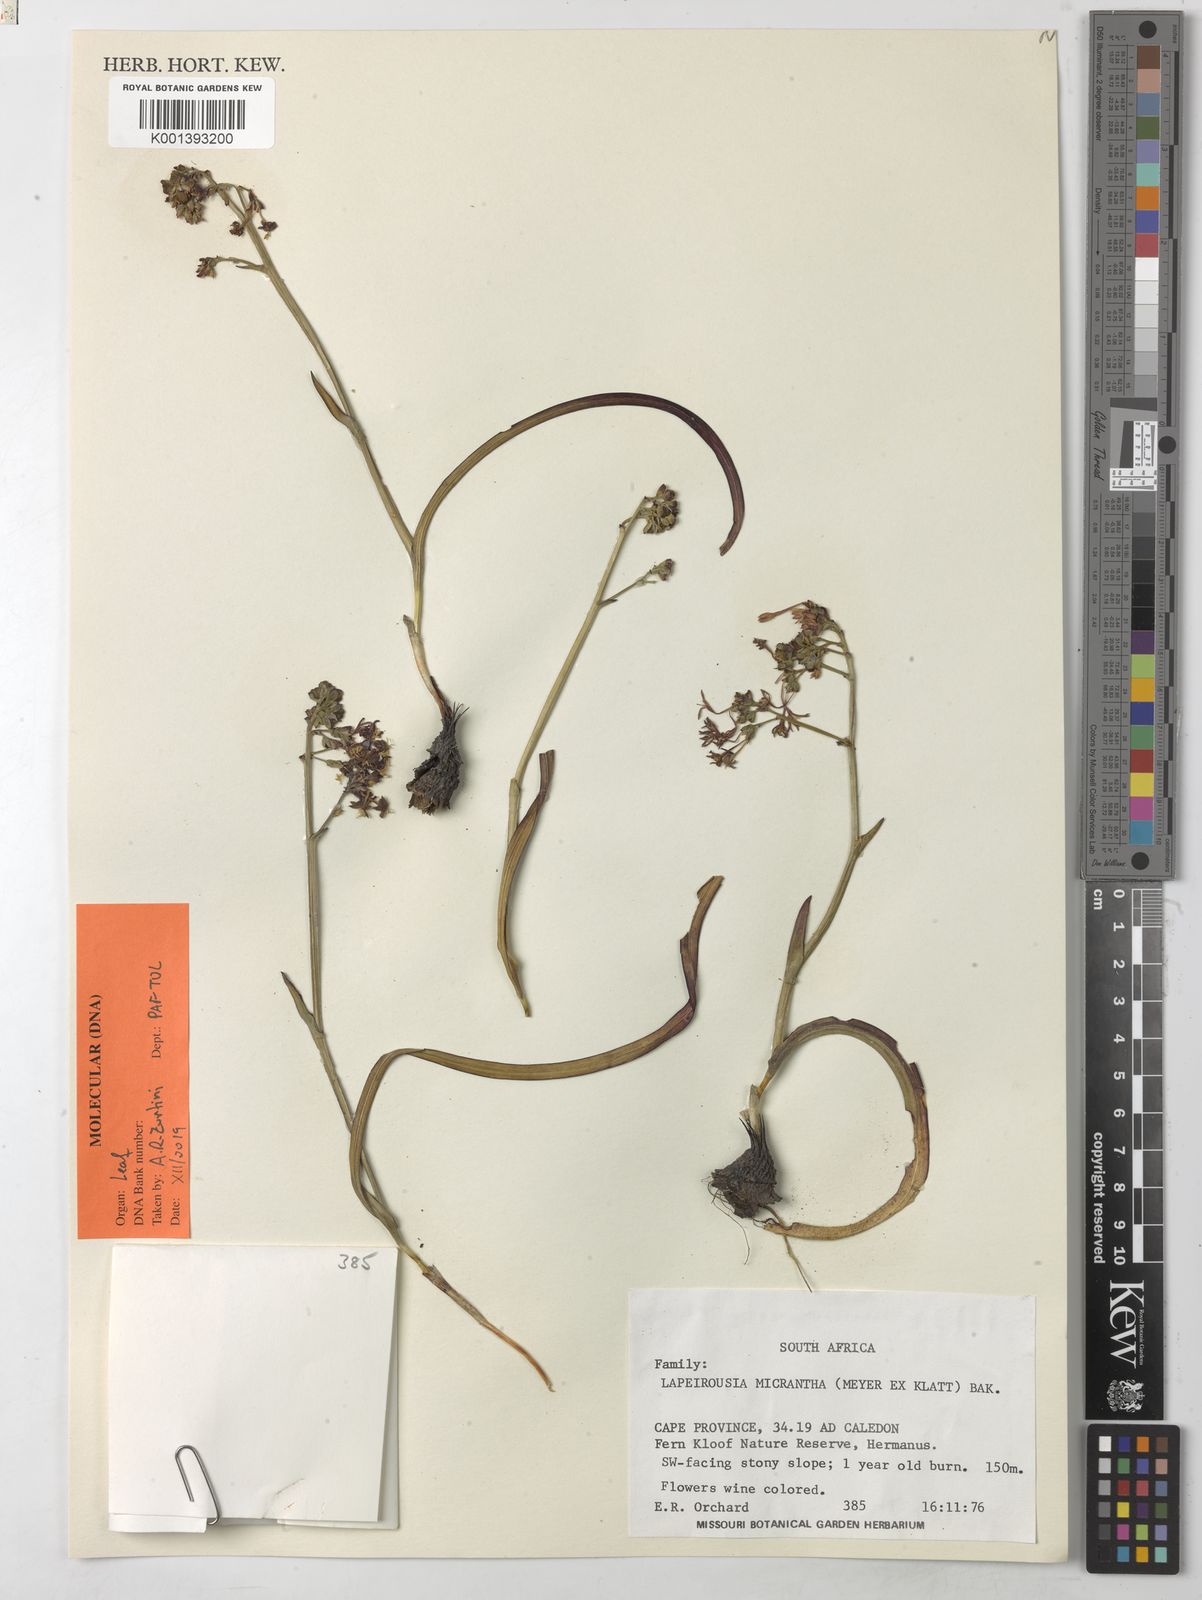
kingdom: Plantae
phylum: Tracheophyta
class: Liliopsida
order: Asparagales
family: Iridaceae
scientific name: Iridaceae
